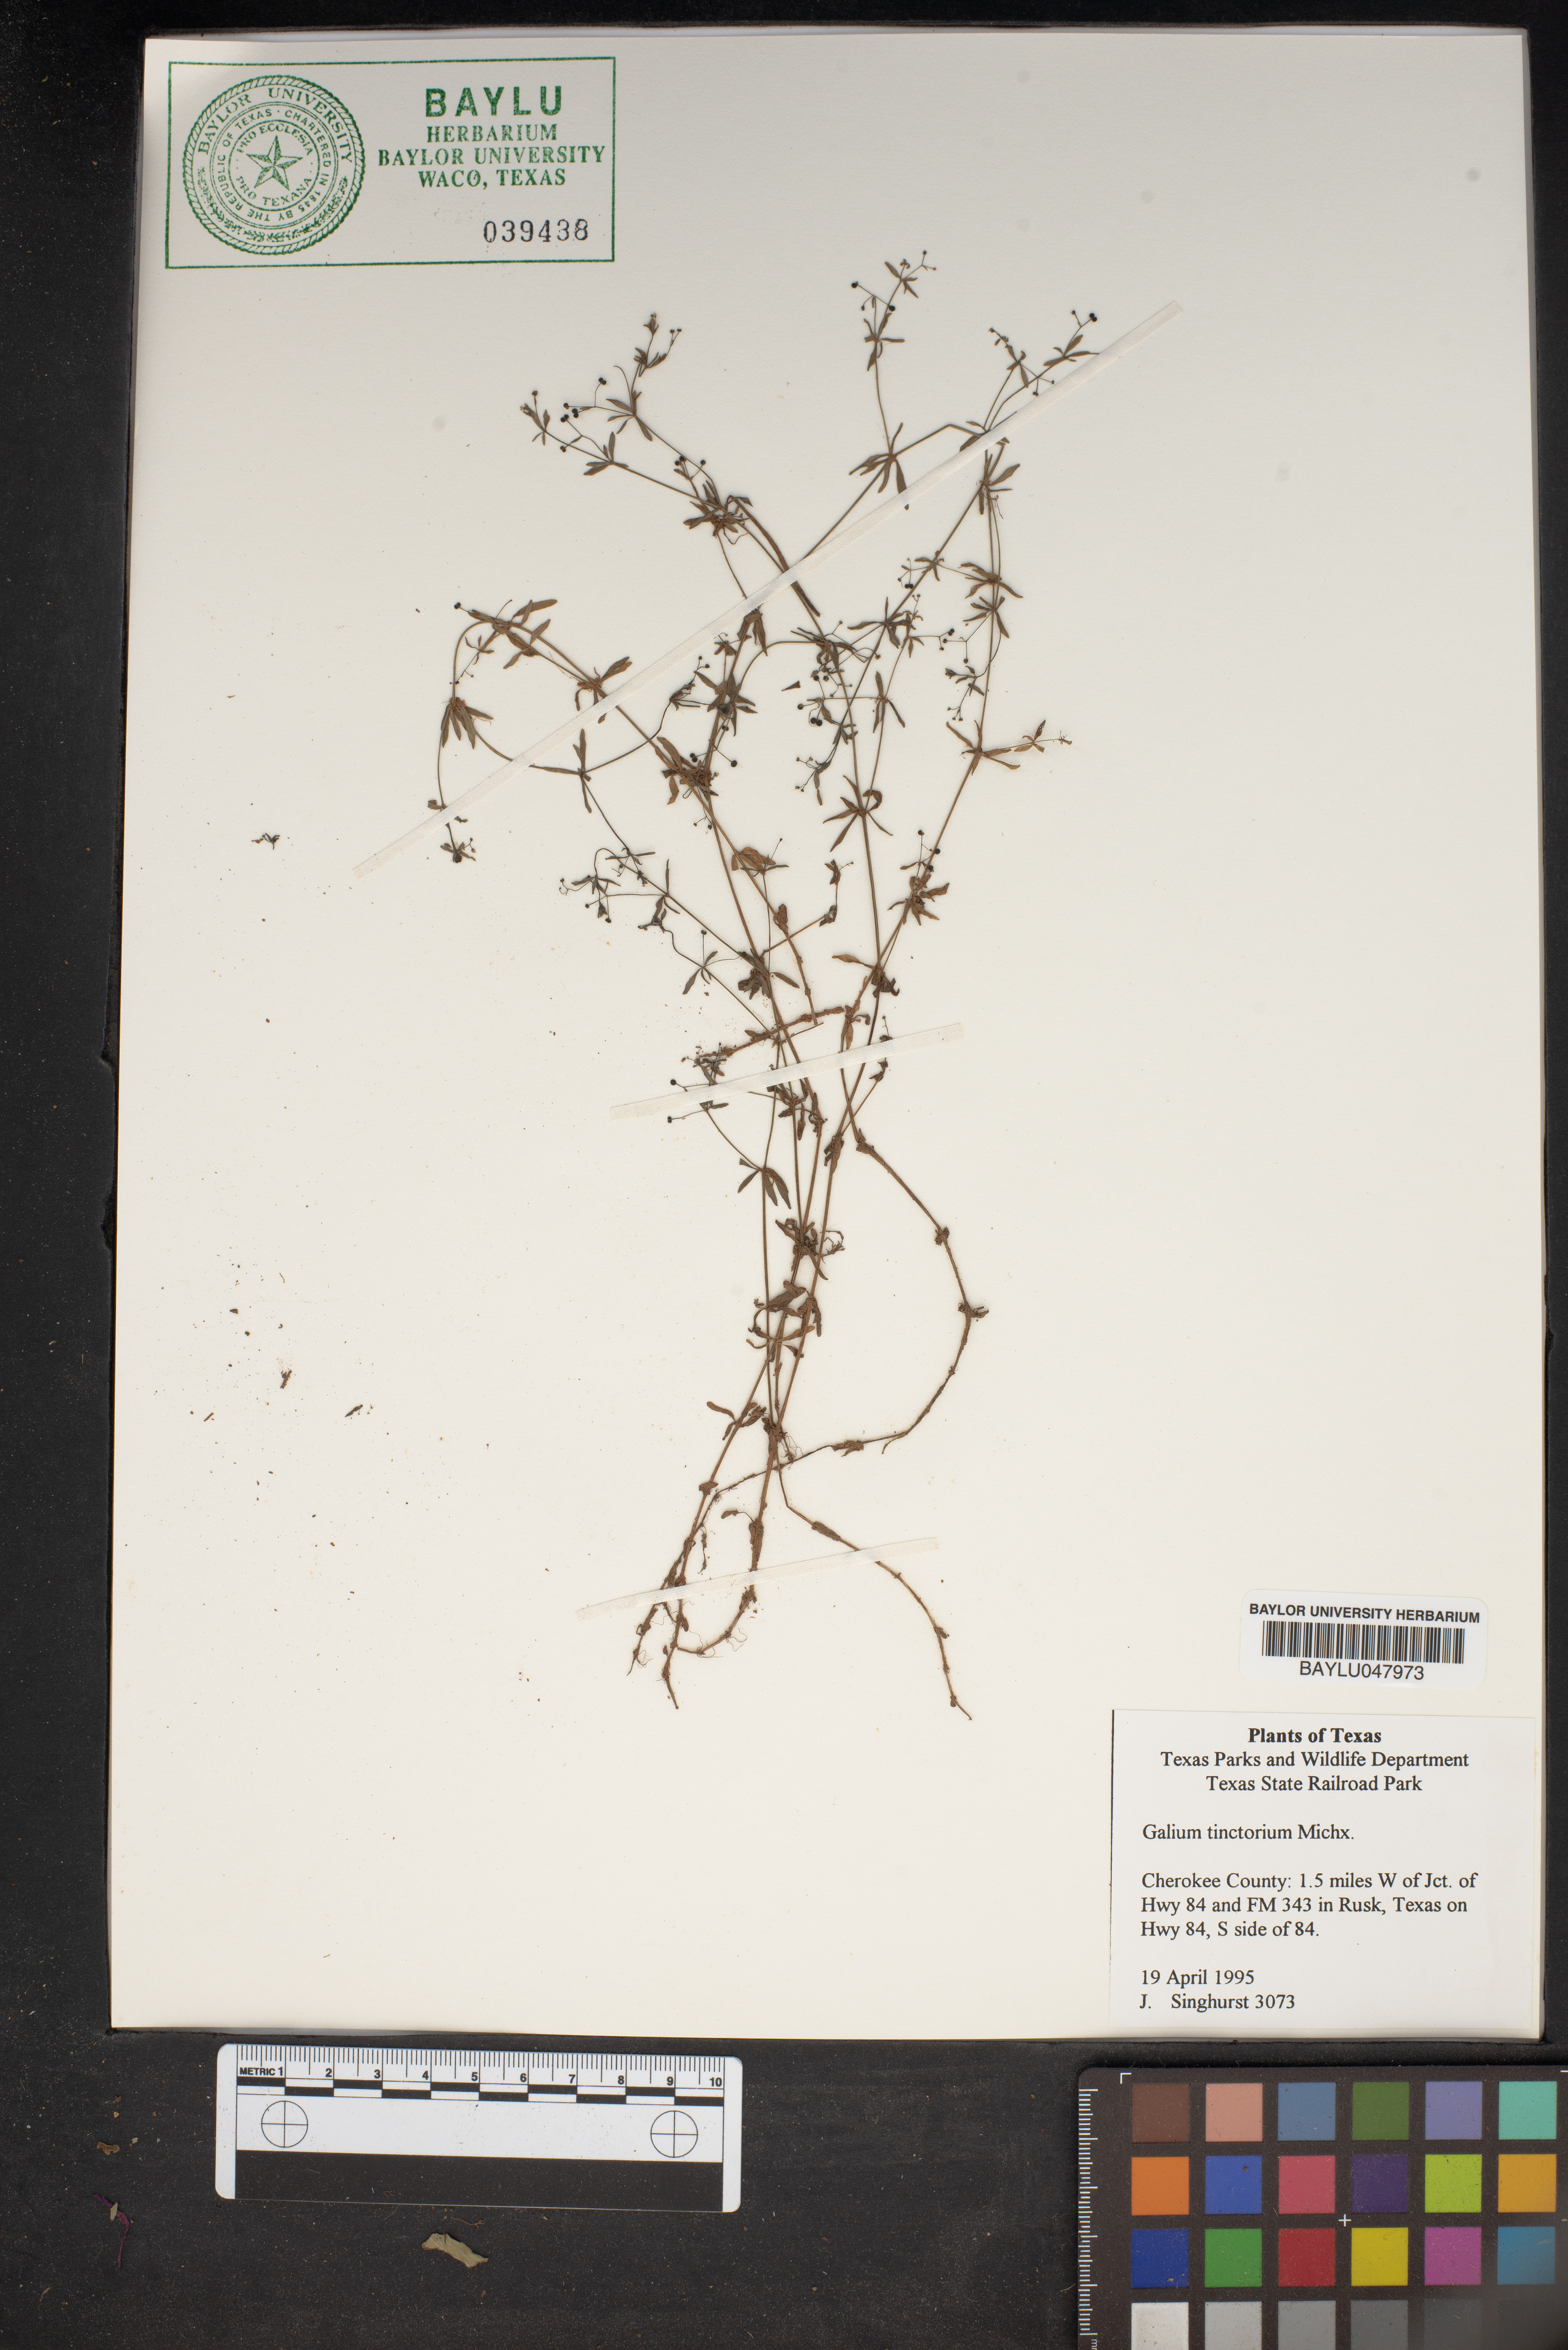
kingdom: Plantae
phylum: Tracheophyta
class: Magnoliopsida
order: Gentianales
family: Rubiaceae
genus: Asperula
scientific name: Asperula tinctoria
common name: Dyer's woodruff
